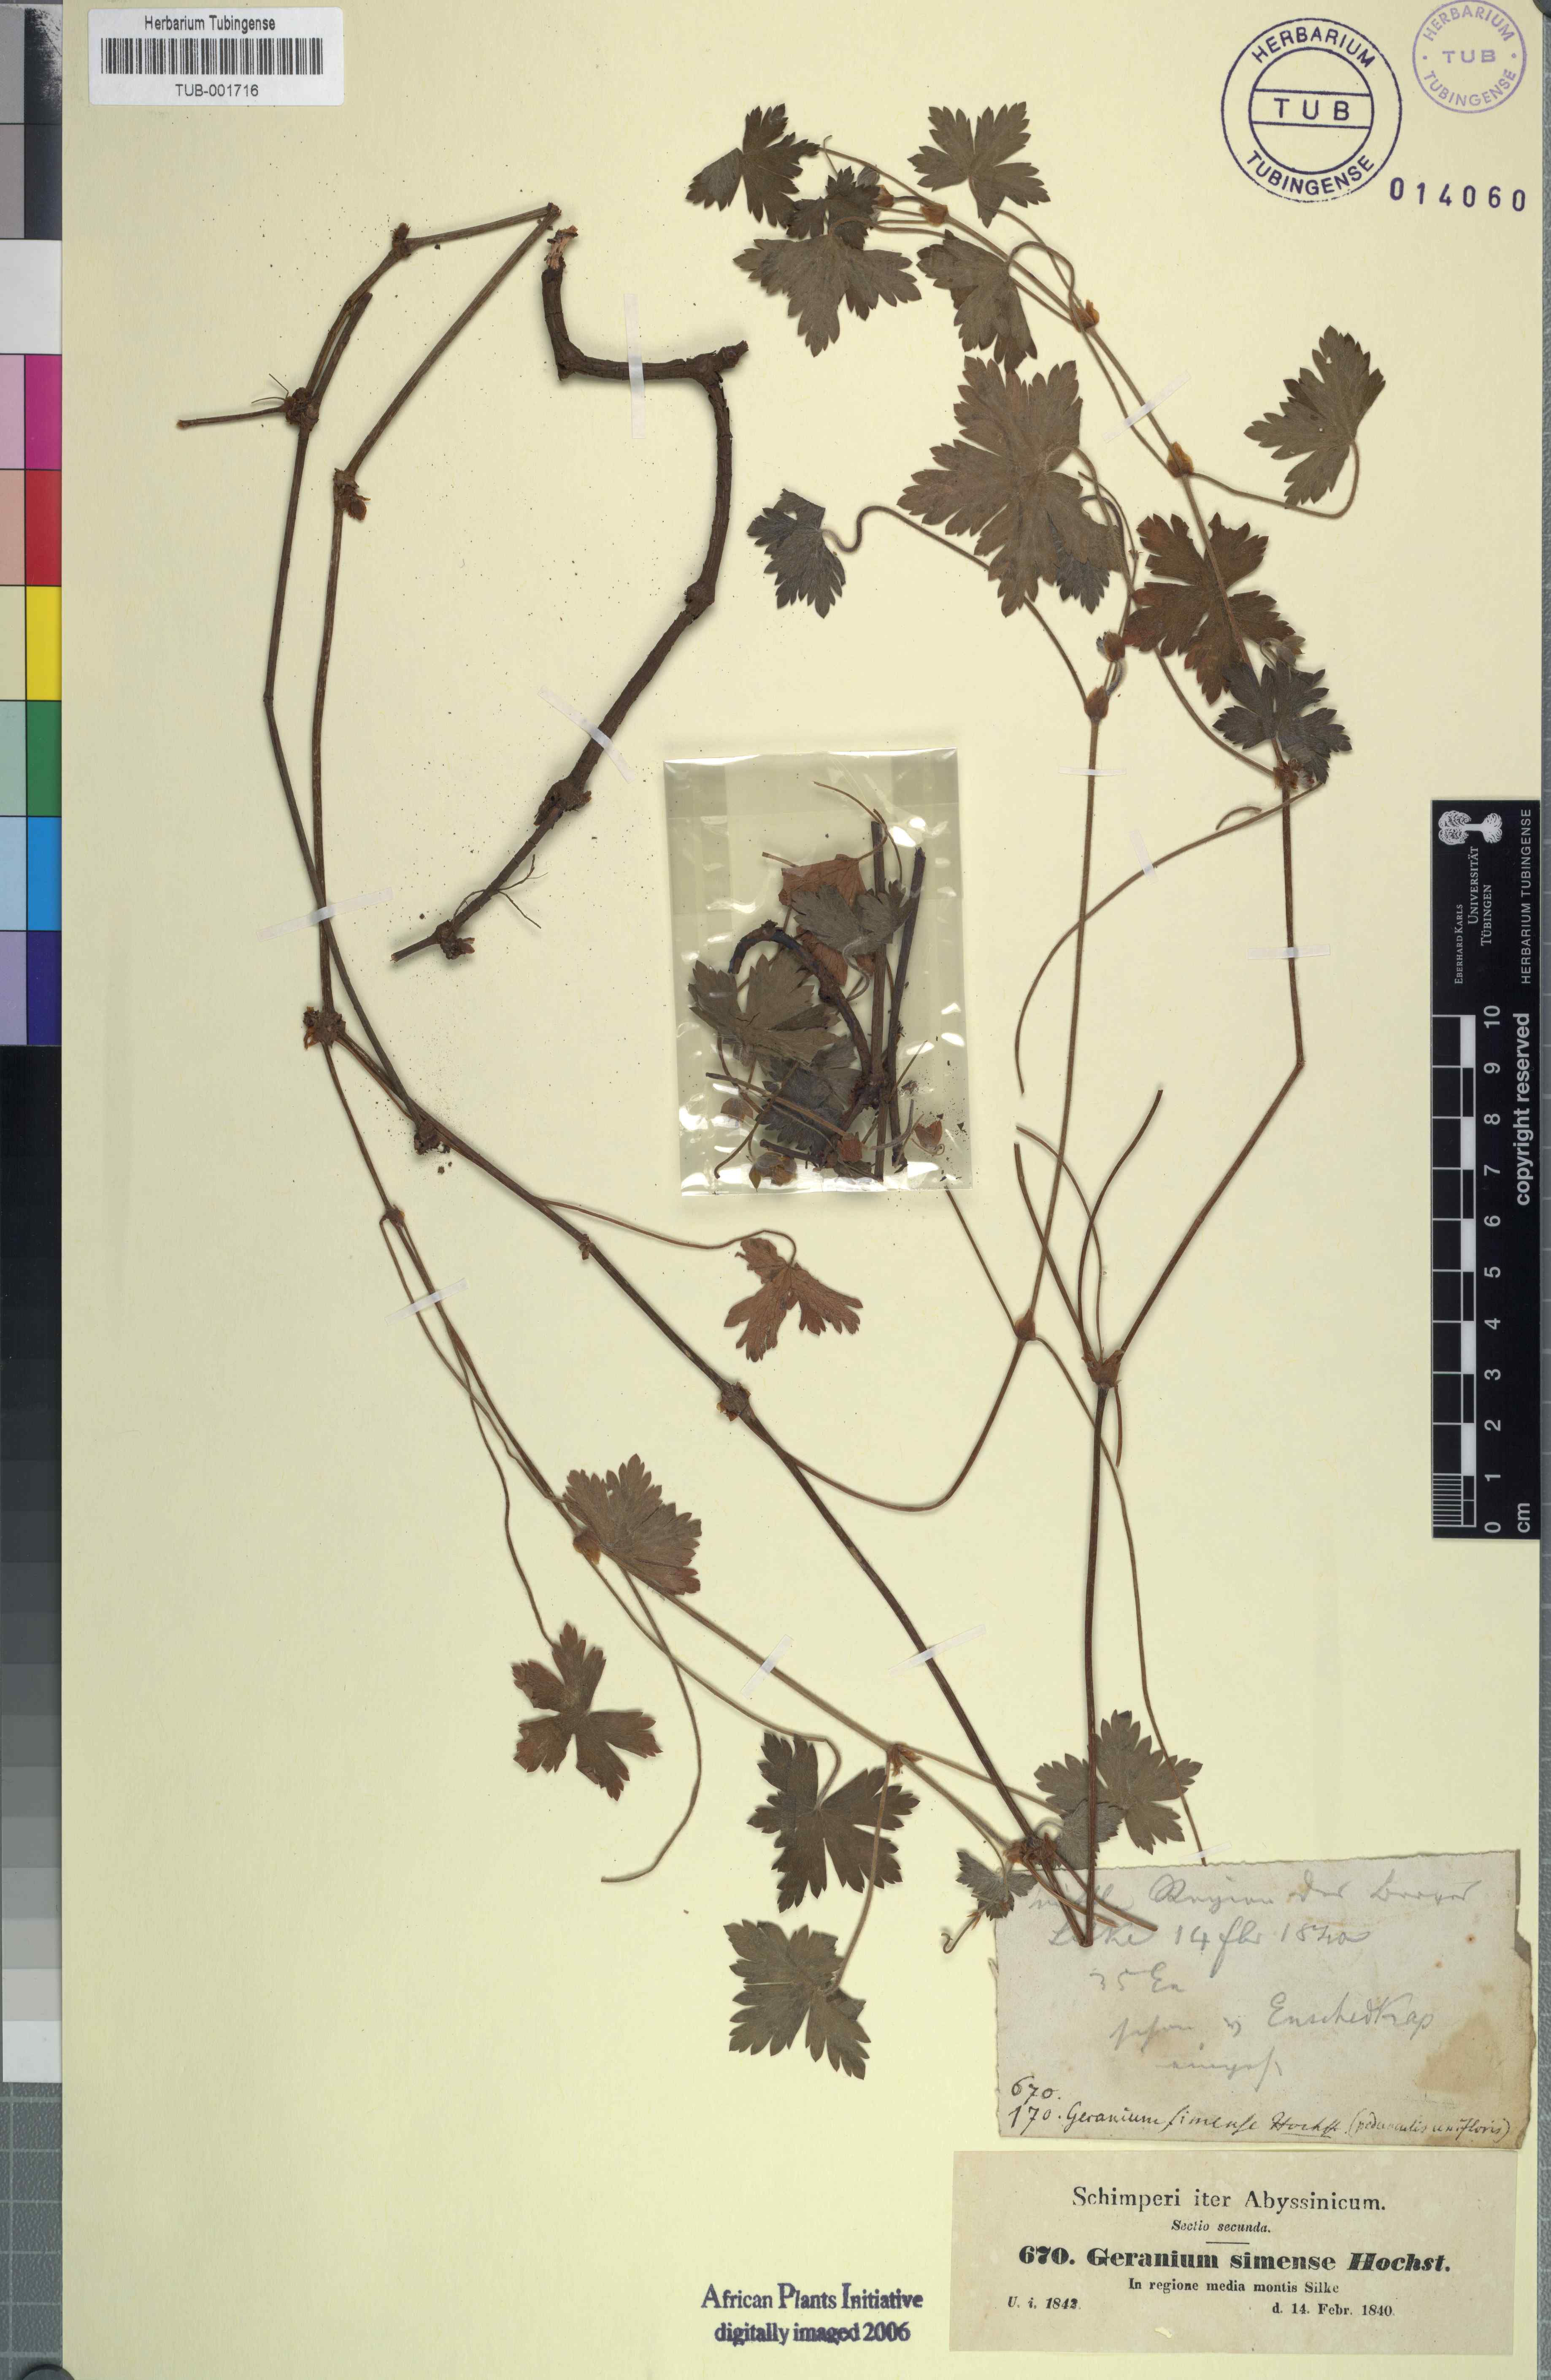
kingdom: Plantae
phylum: Tracheophyta
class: Magnoliopsida
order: Geraniales
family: Geraniaceae
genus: Geranium
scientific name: Geranium simense
